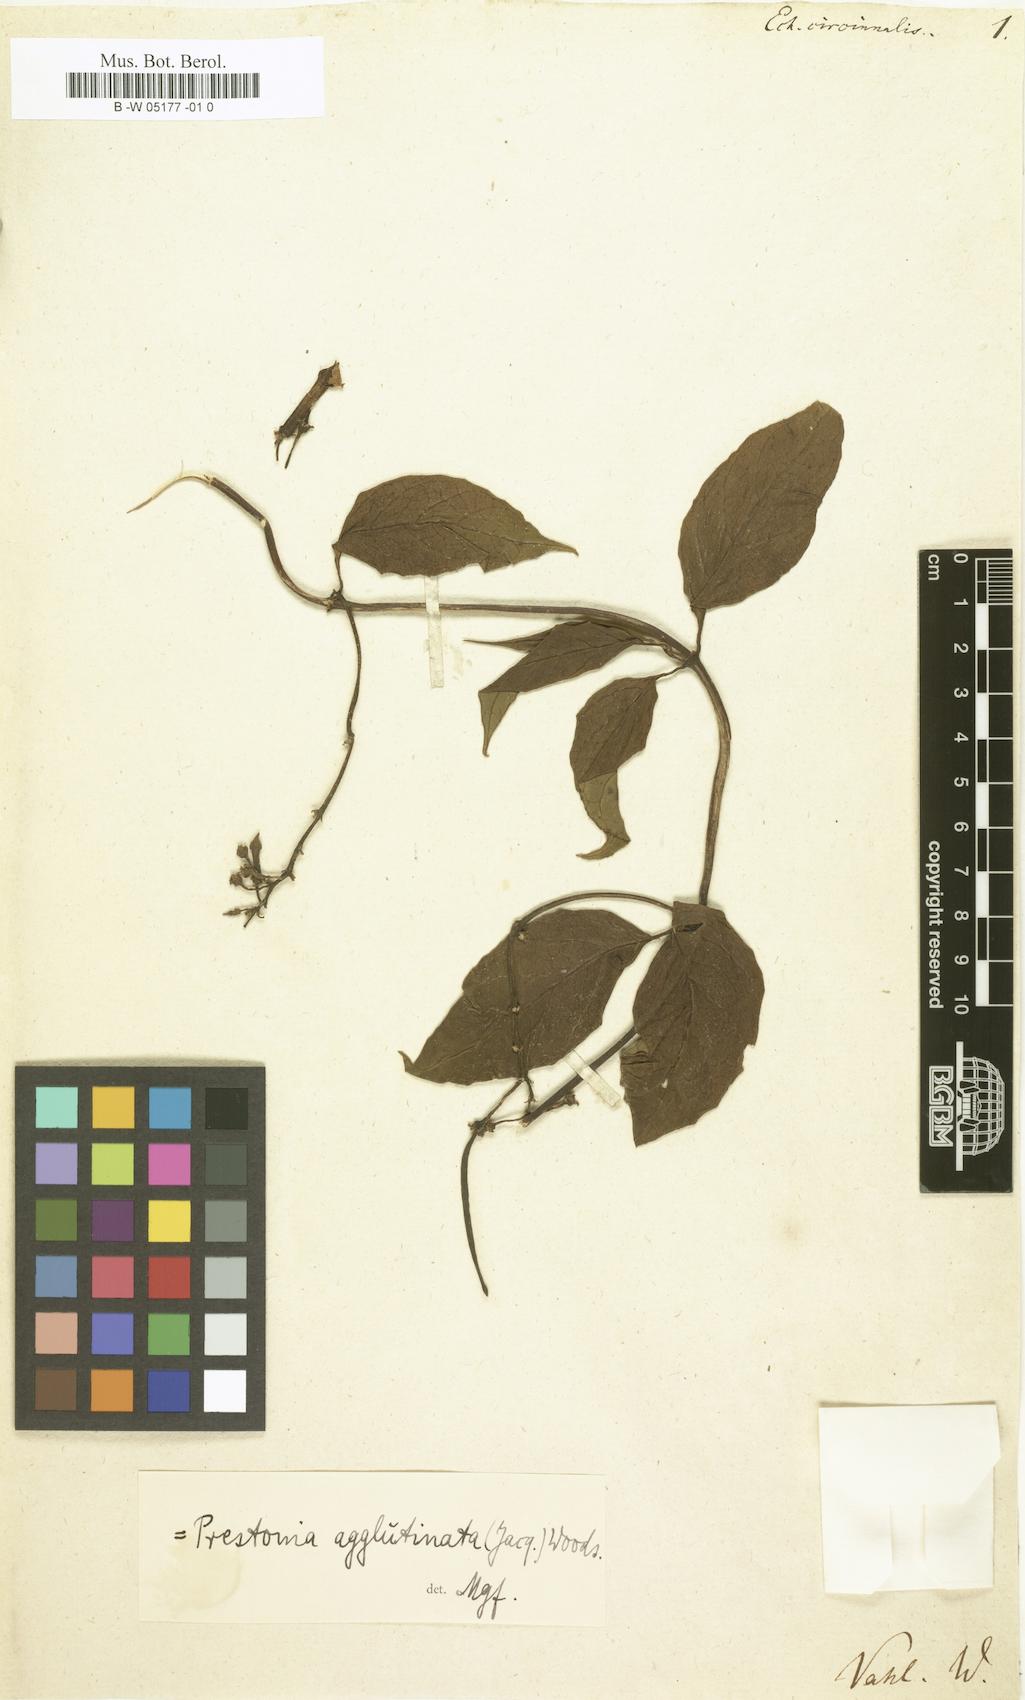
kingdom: Plantae
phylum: Tracheophyta
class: Magnoliopsida
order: Gentianales
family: Apocynaceae
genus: Echites
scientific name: Echites agglutinatus
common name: Azufaifo
